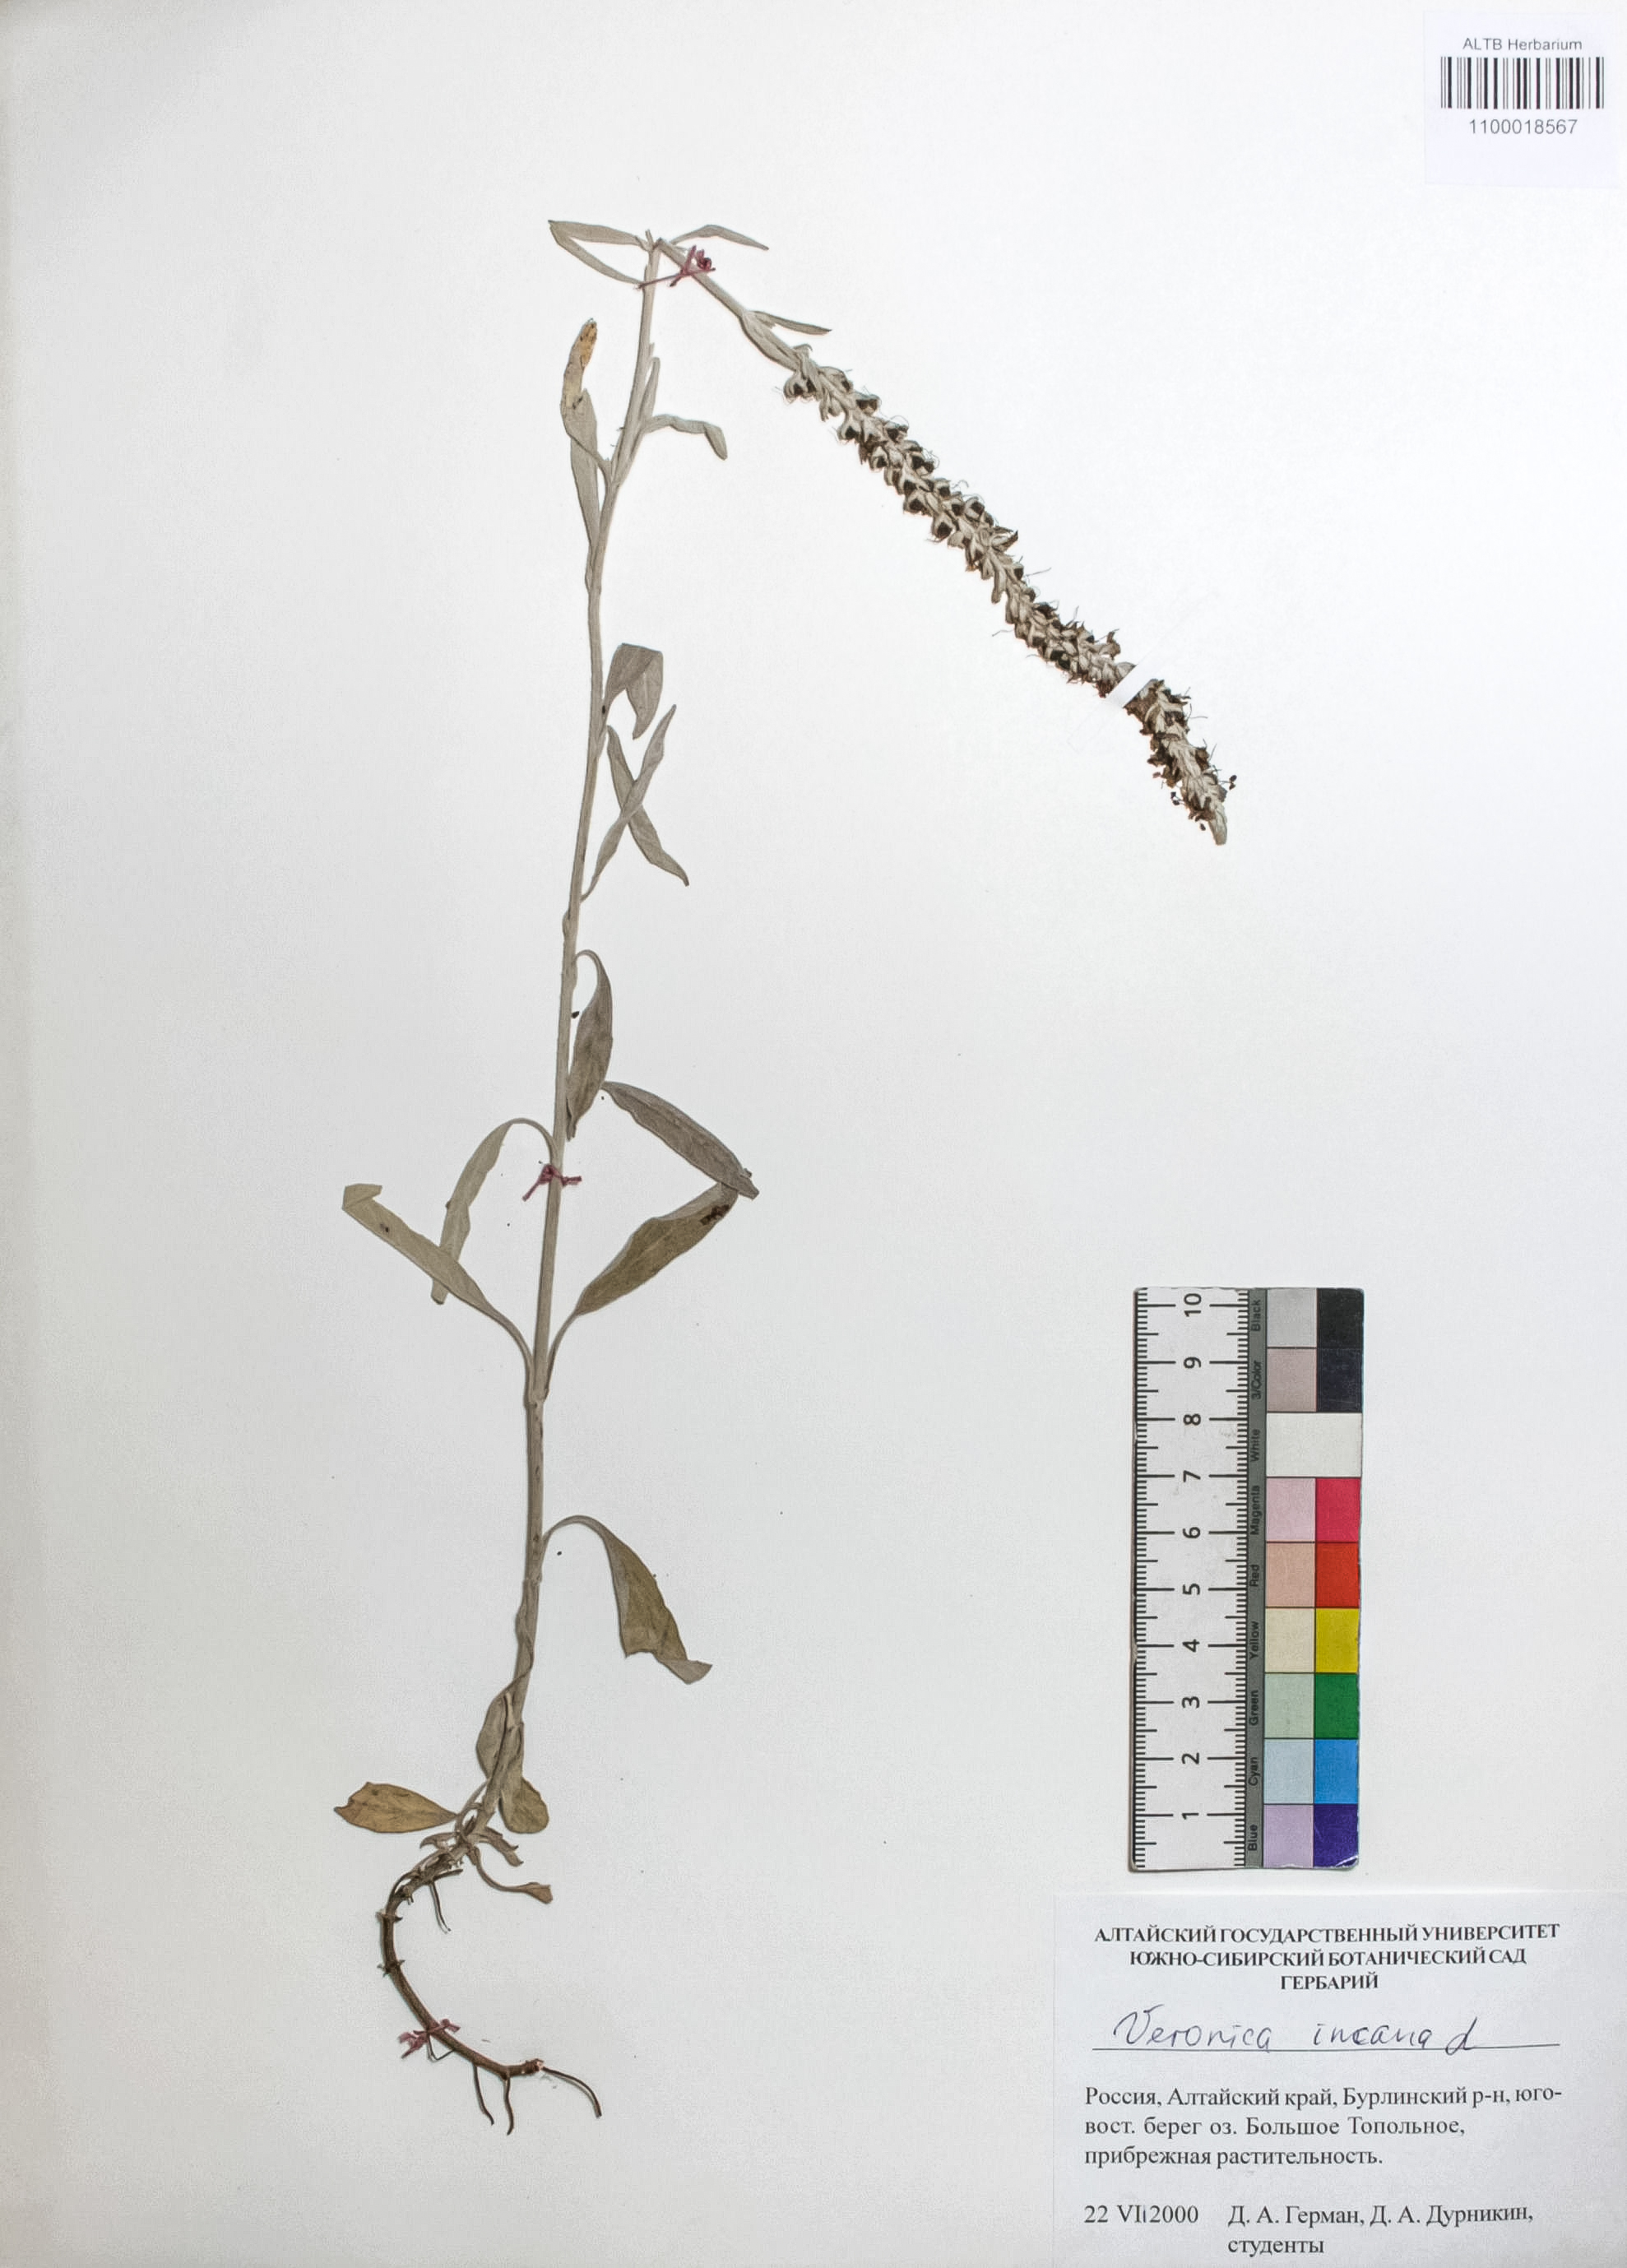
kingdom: Plantae
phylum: Tracheophyta
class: Magnoliopsida
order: Lamiales
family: Plantaginaceae
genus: Veronica
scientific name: Veronica incana
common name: Silver speedwell
